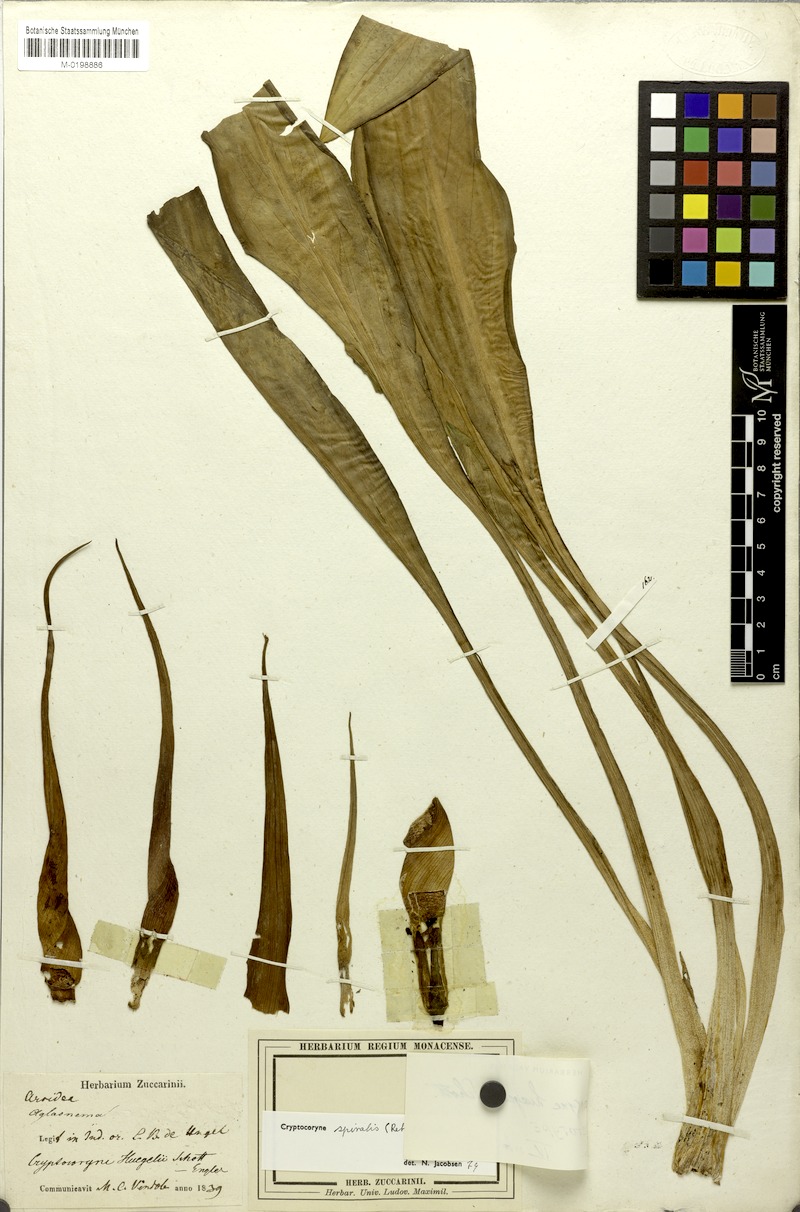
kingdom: Plantae
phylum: Tracheophyta
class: Liliopsida
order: Alismatales
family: Araceae
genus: Cryptocoryne
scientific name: Cryptocoryne spiralis
